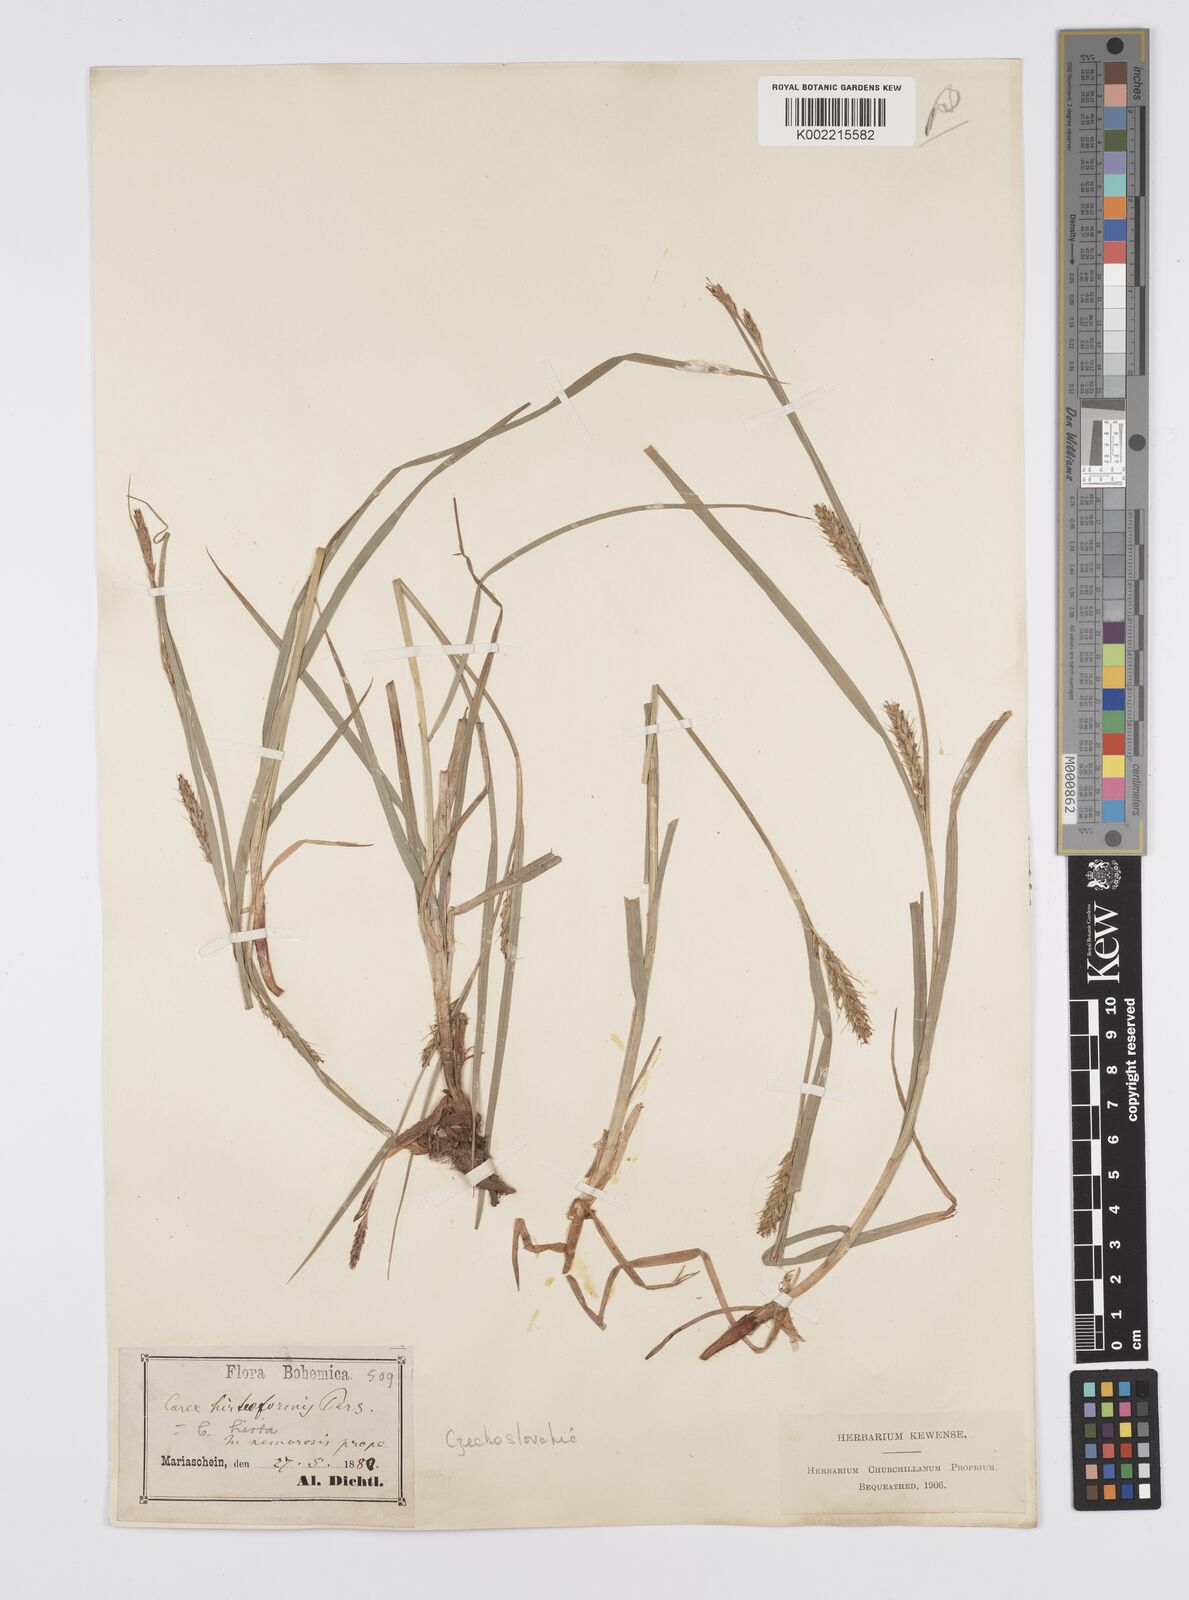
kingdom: Plantae
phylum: Tracheophyta
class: Liliopsida
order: Poales
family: Cyperaceae
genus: Carex
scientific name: Carex hirta
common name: Hairy sedge
